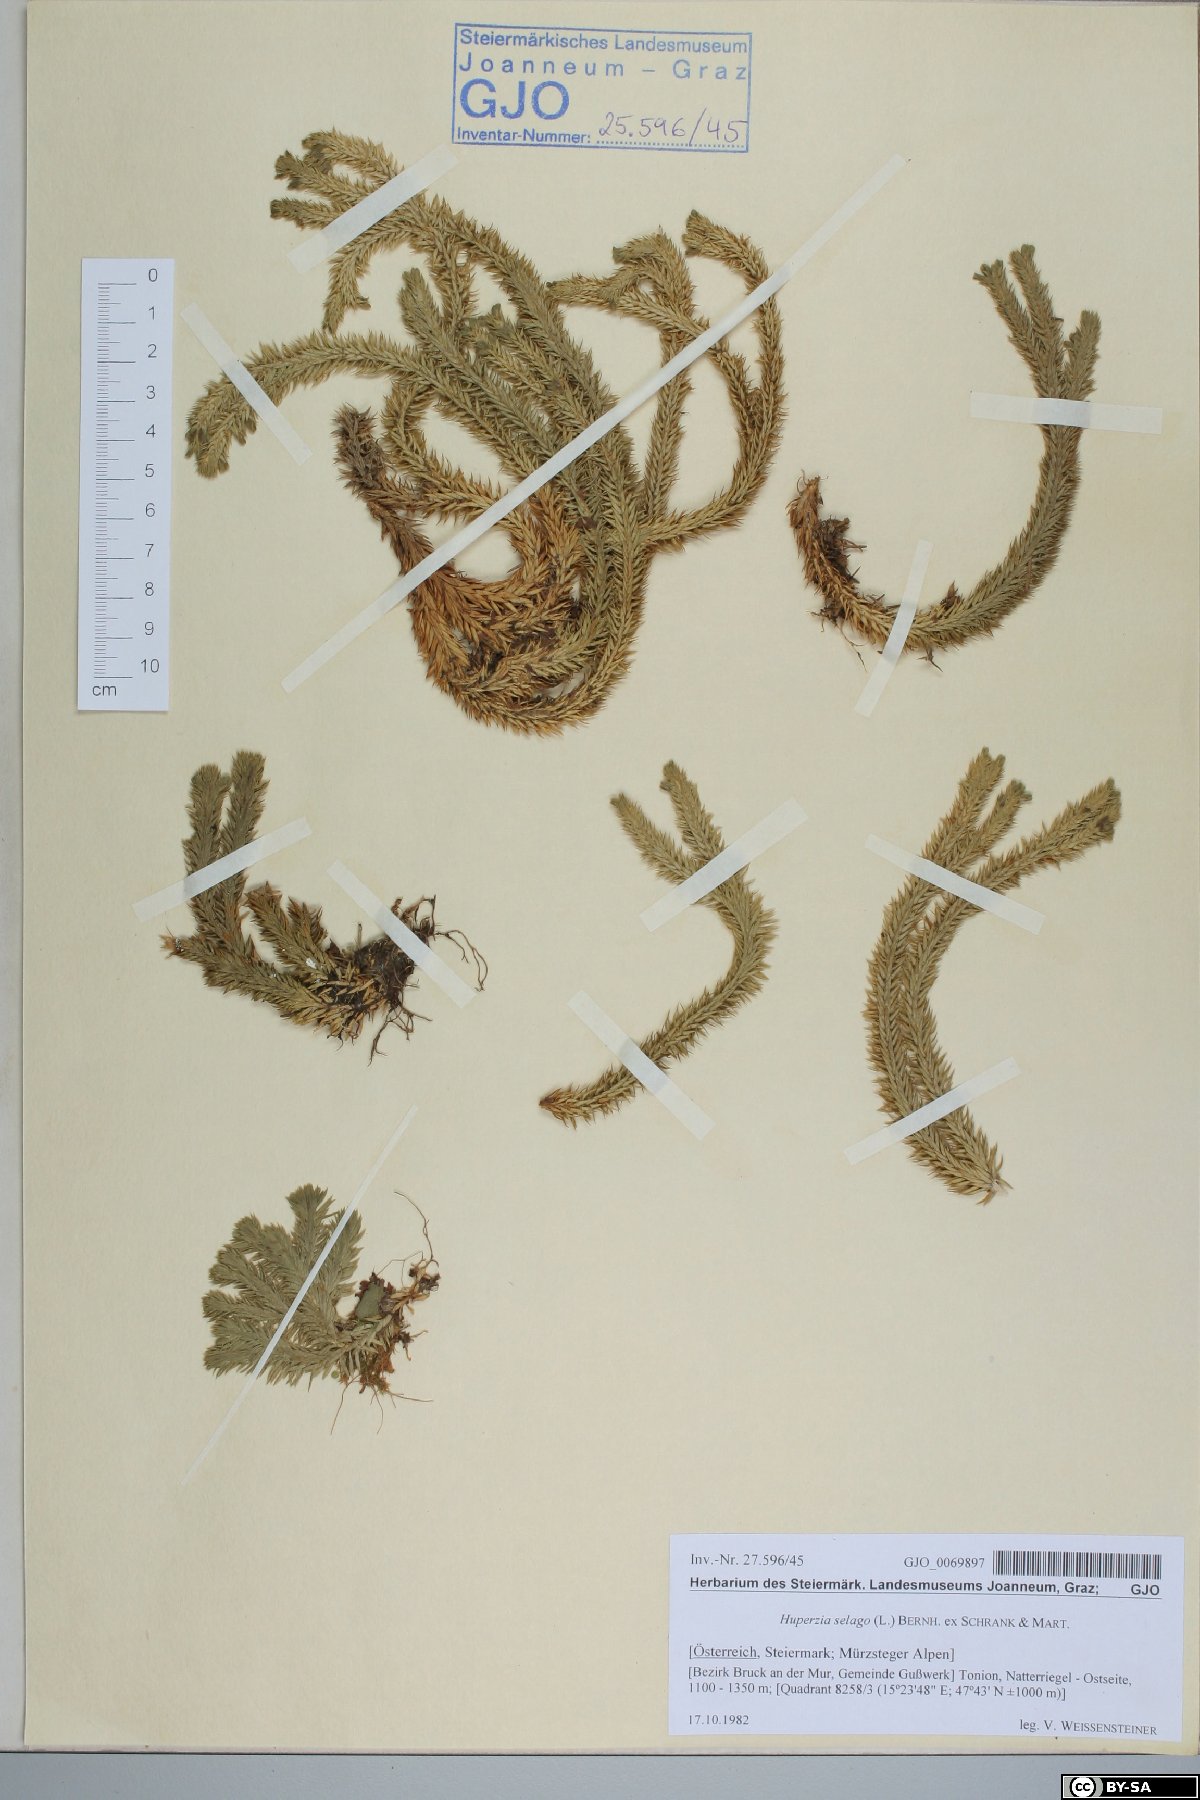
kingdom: Plantae
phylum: Tracheophyta
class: Lycopodiopsida
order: Lycopodiales
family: Lycopodiaceae
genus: Huperzia
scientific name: Huperzia selago
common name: Northern firmoss
